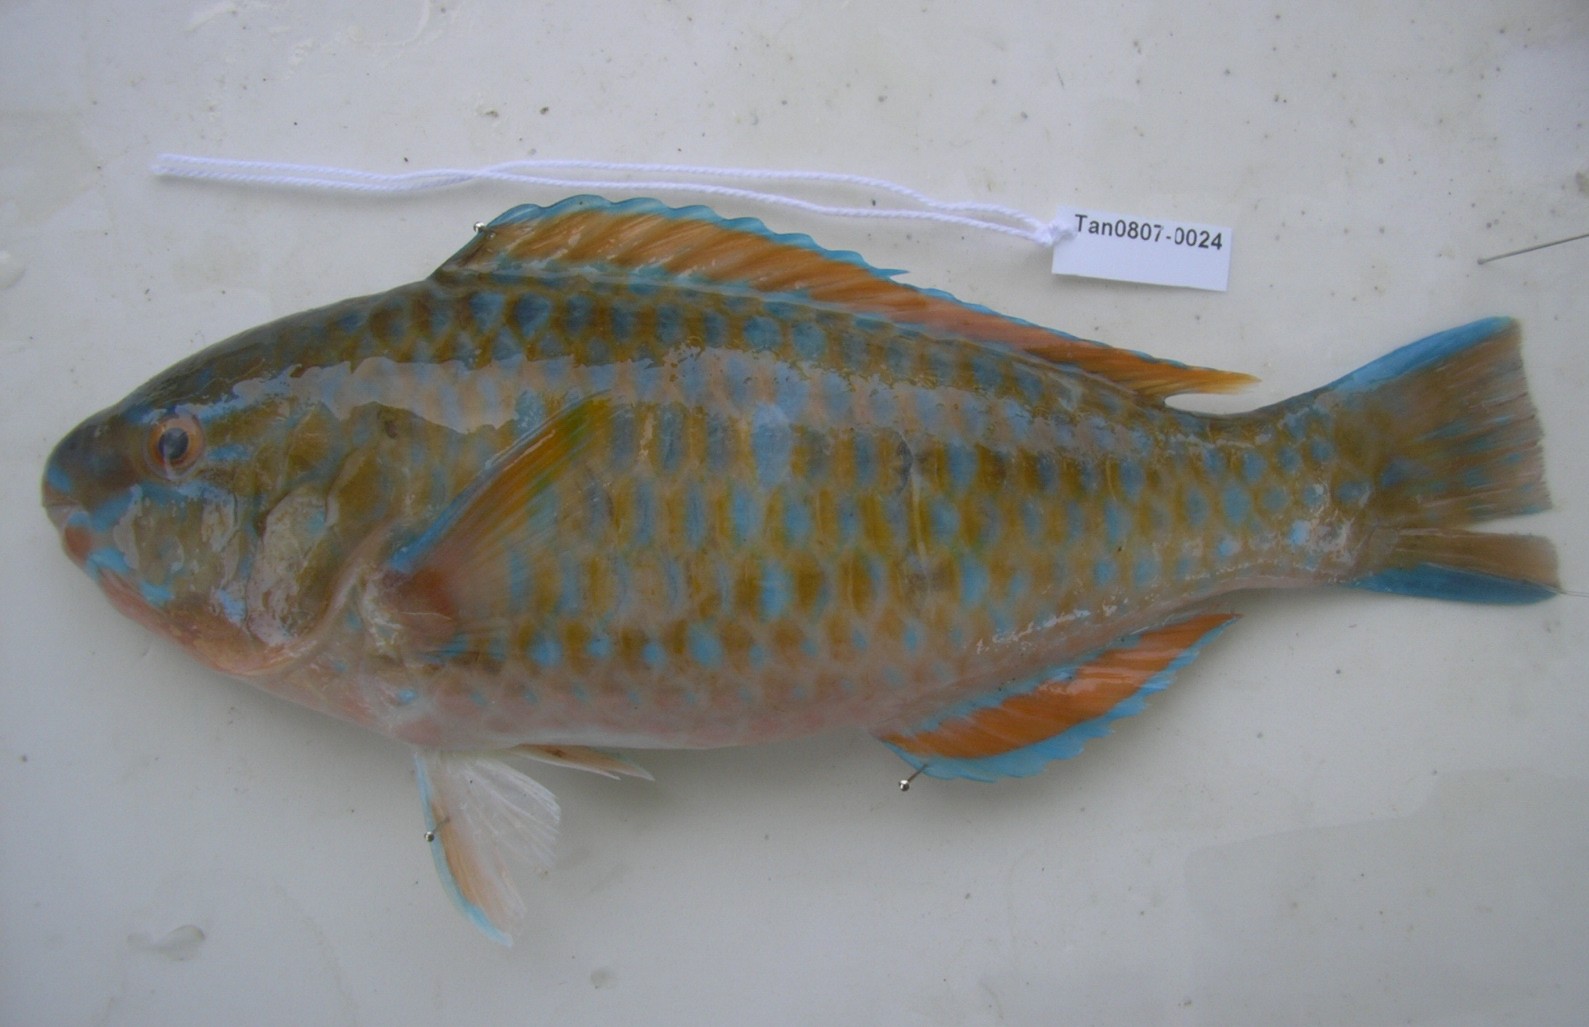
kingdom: Animalia
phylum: Chordata
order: Perciformes
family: Scaridae
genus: Chlorurus
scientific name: Chlorurus sordidus
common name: Bullethead parrotfish
